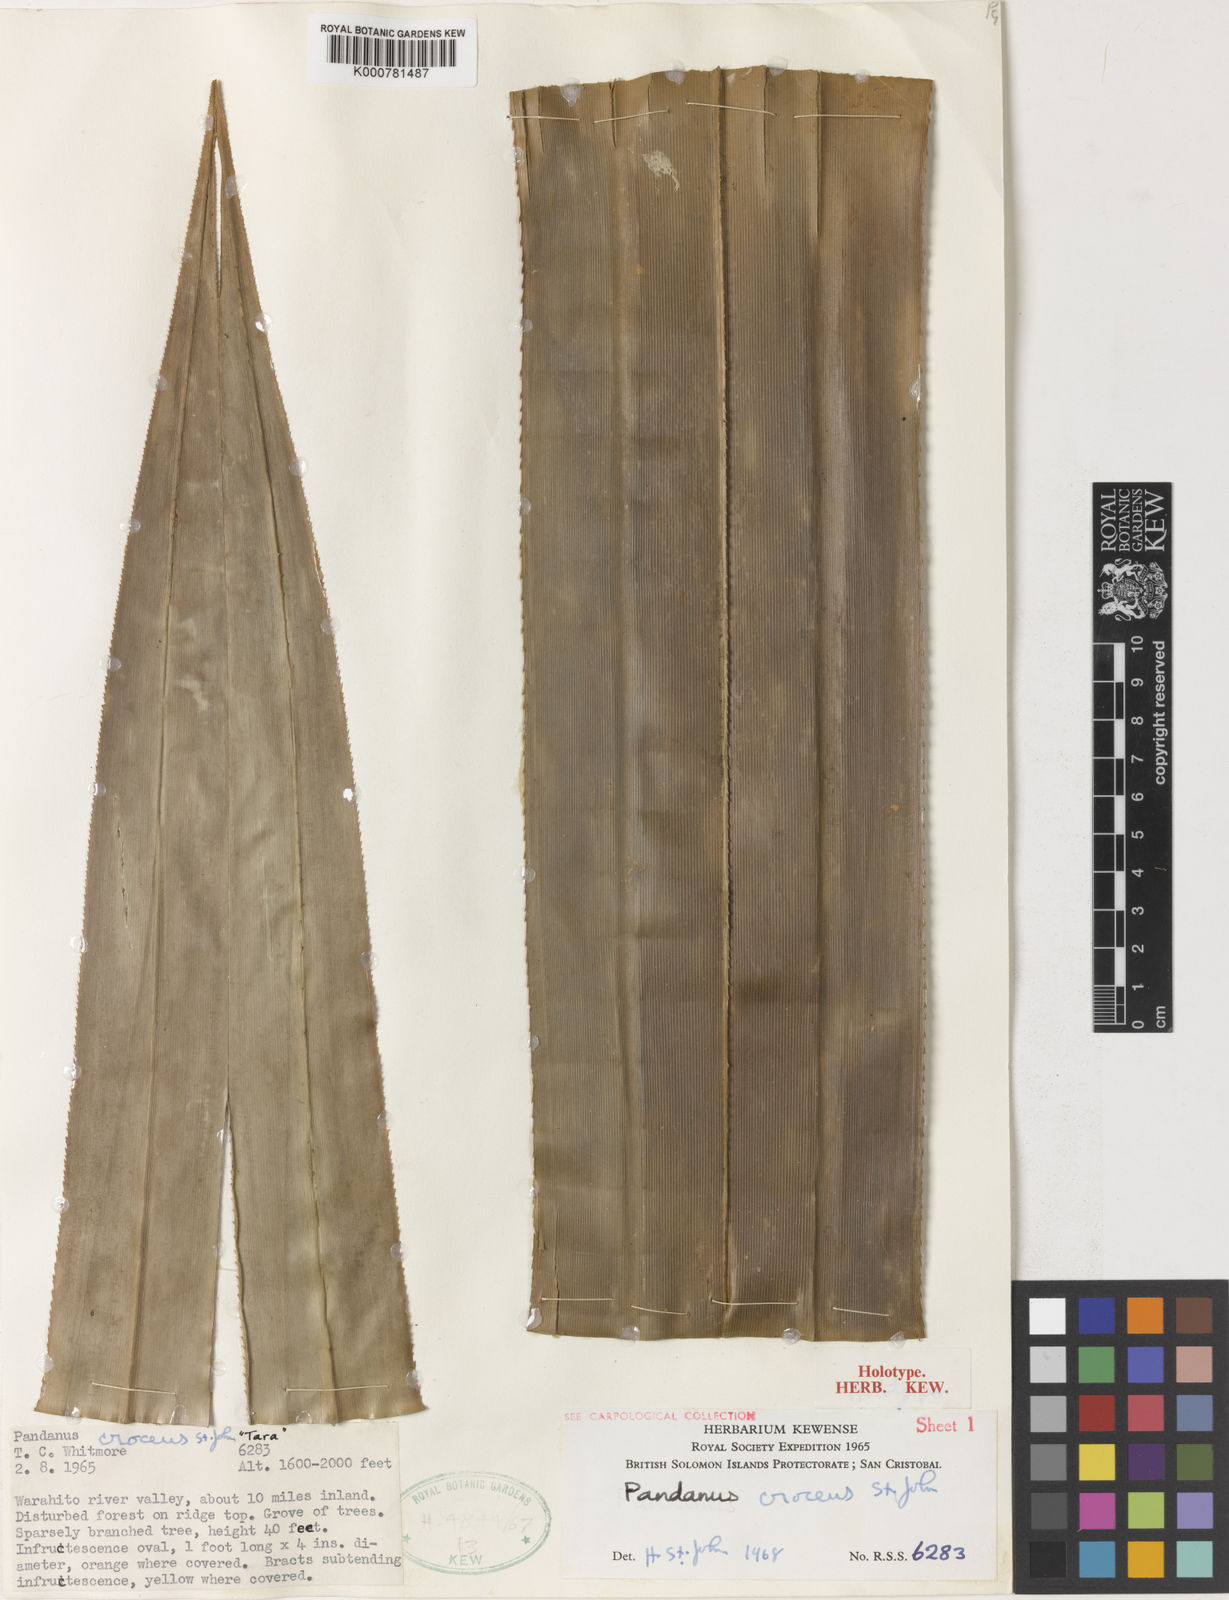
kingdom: Plantae
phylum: Tracheophyta
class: Liliopsida
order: Pandanales
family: Pandanaceae
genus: Pandanus
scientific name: Pandanus
